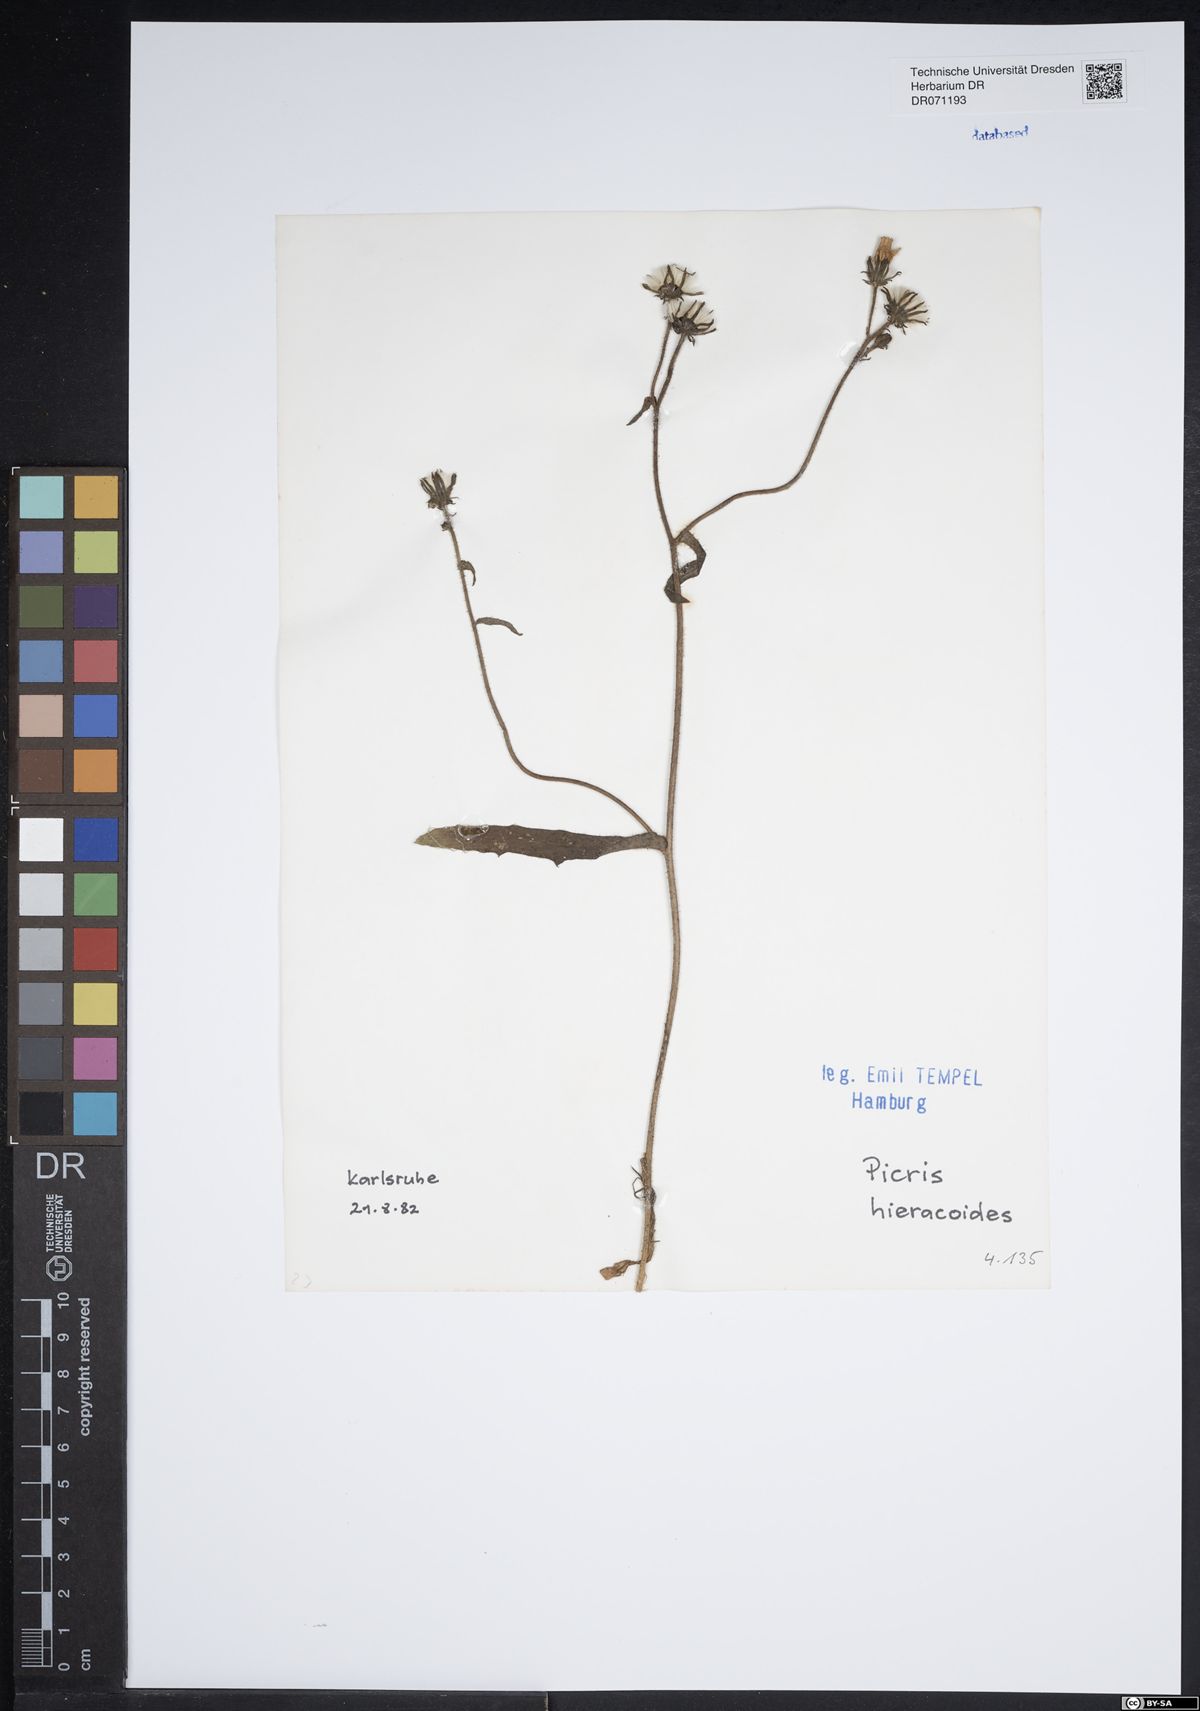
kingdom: Plantae
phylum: Tracheophyta
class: Magnoliopsida
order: Asterales
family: Asteraceae
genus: Picris
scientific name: Picris hieracioides
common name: Hawkweed oxtongue
